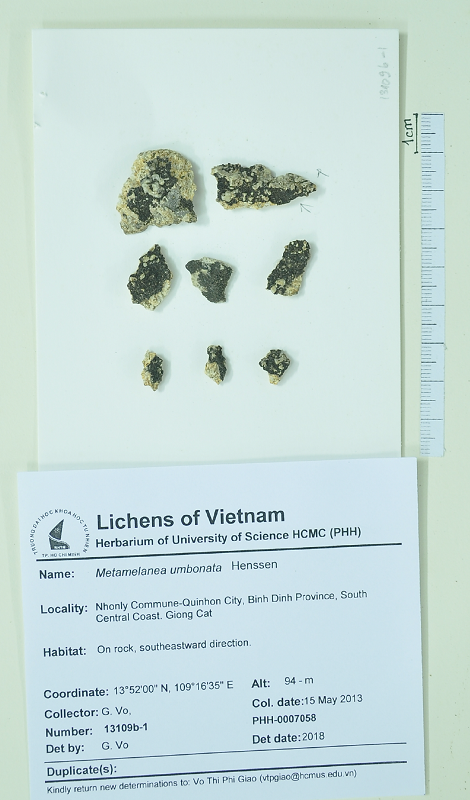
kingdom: Fungi
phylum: Ascomycota
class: Lichinomycetes
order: Lichinales
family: Lichinaceae
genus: Metamelanea
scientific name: Metamelanea umbonata
